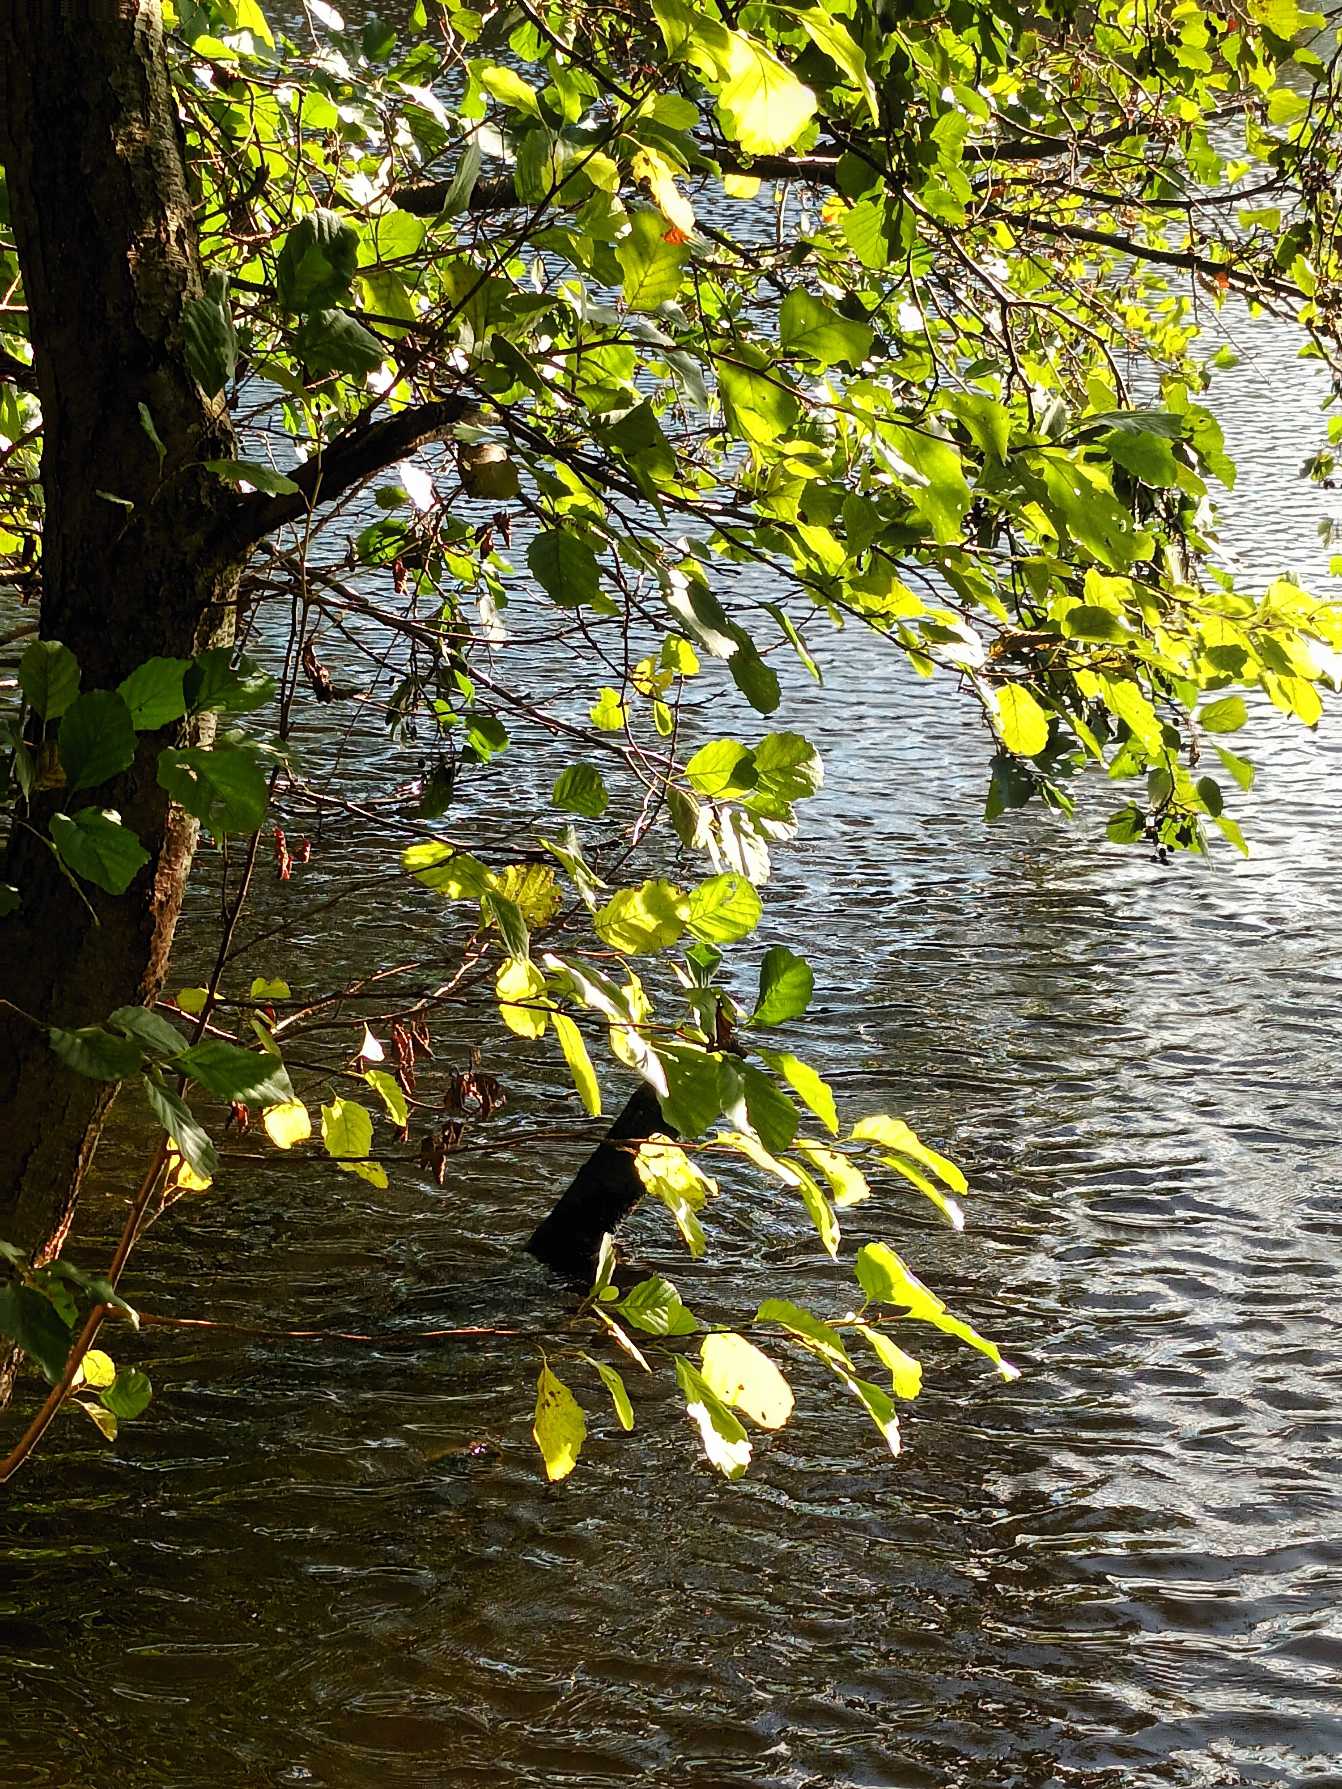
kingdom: Plantae
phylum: Tracheophyta
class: Magnoliopsida
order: Fagales
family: Betulaceae
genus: Alnus
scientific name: Alnus glutinosa
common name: Rød-el
